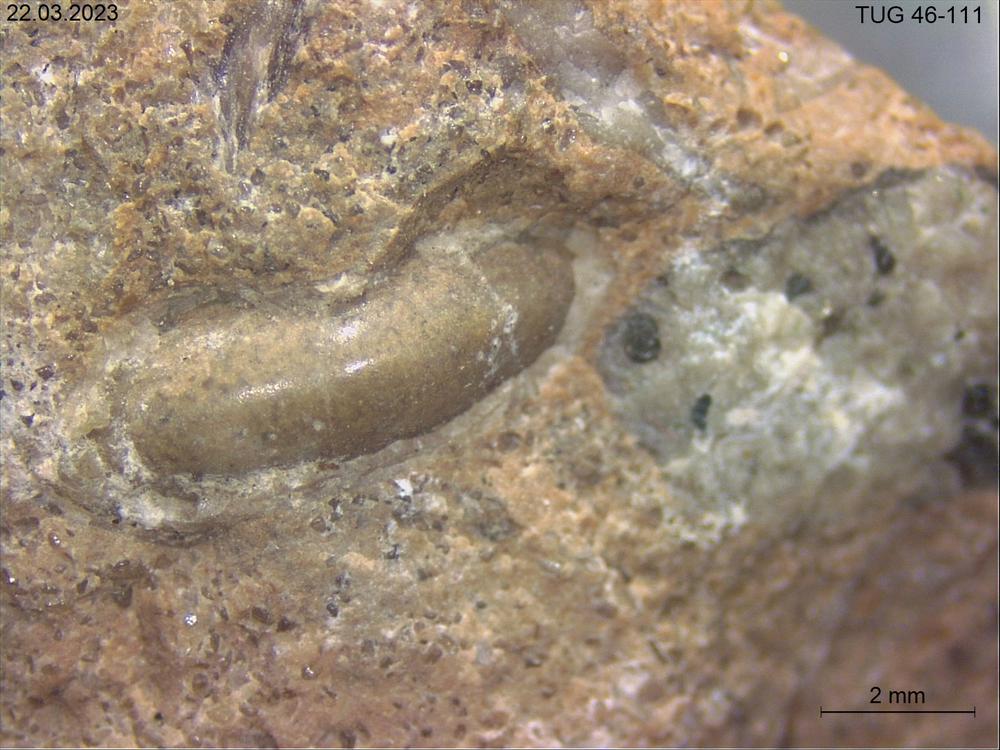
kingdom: Animalia
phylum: Mollusca
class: Gastropoda
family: Bucaniidae
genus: Megalomphala
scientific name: Megalomphala
